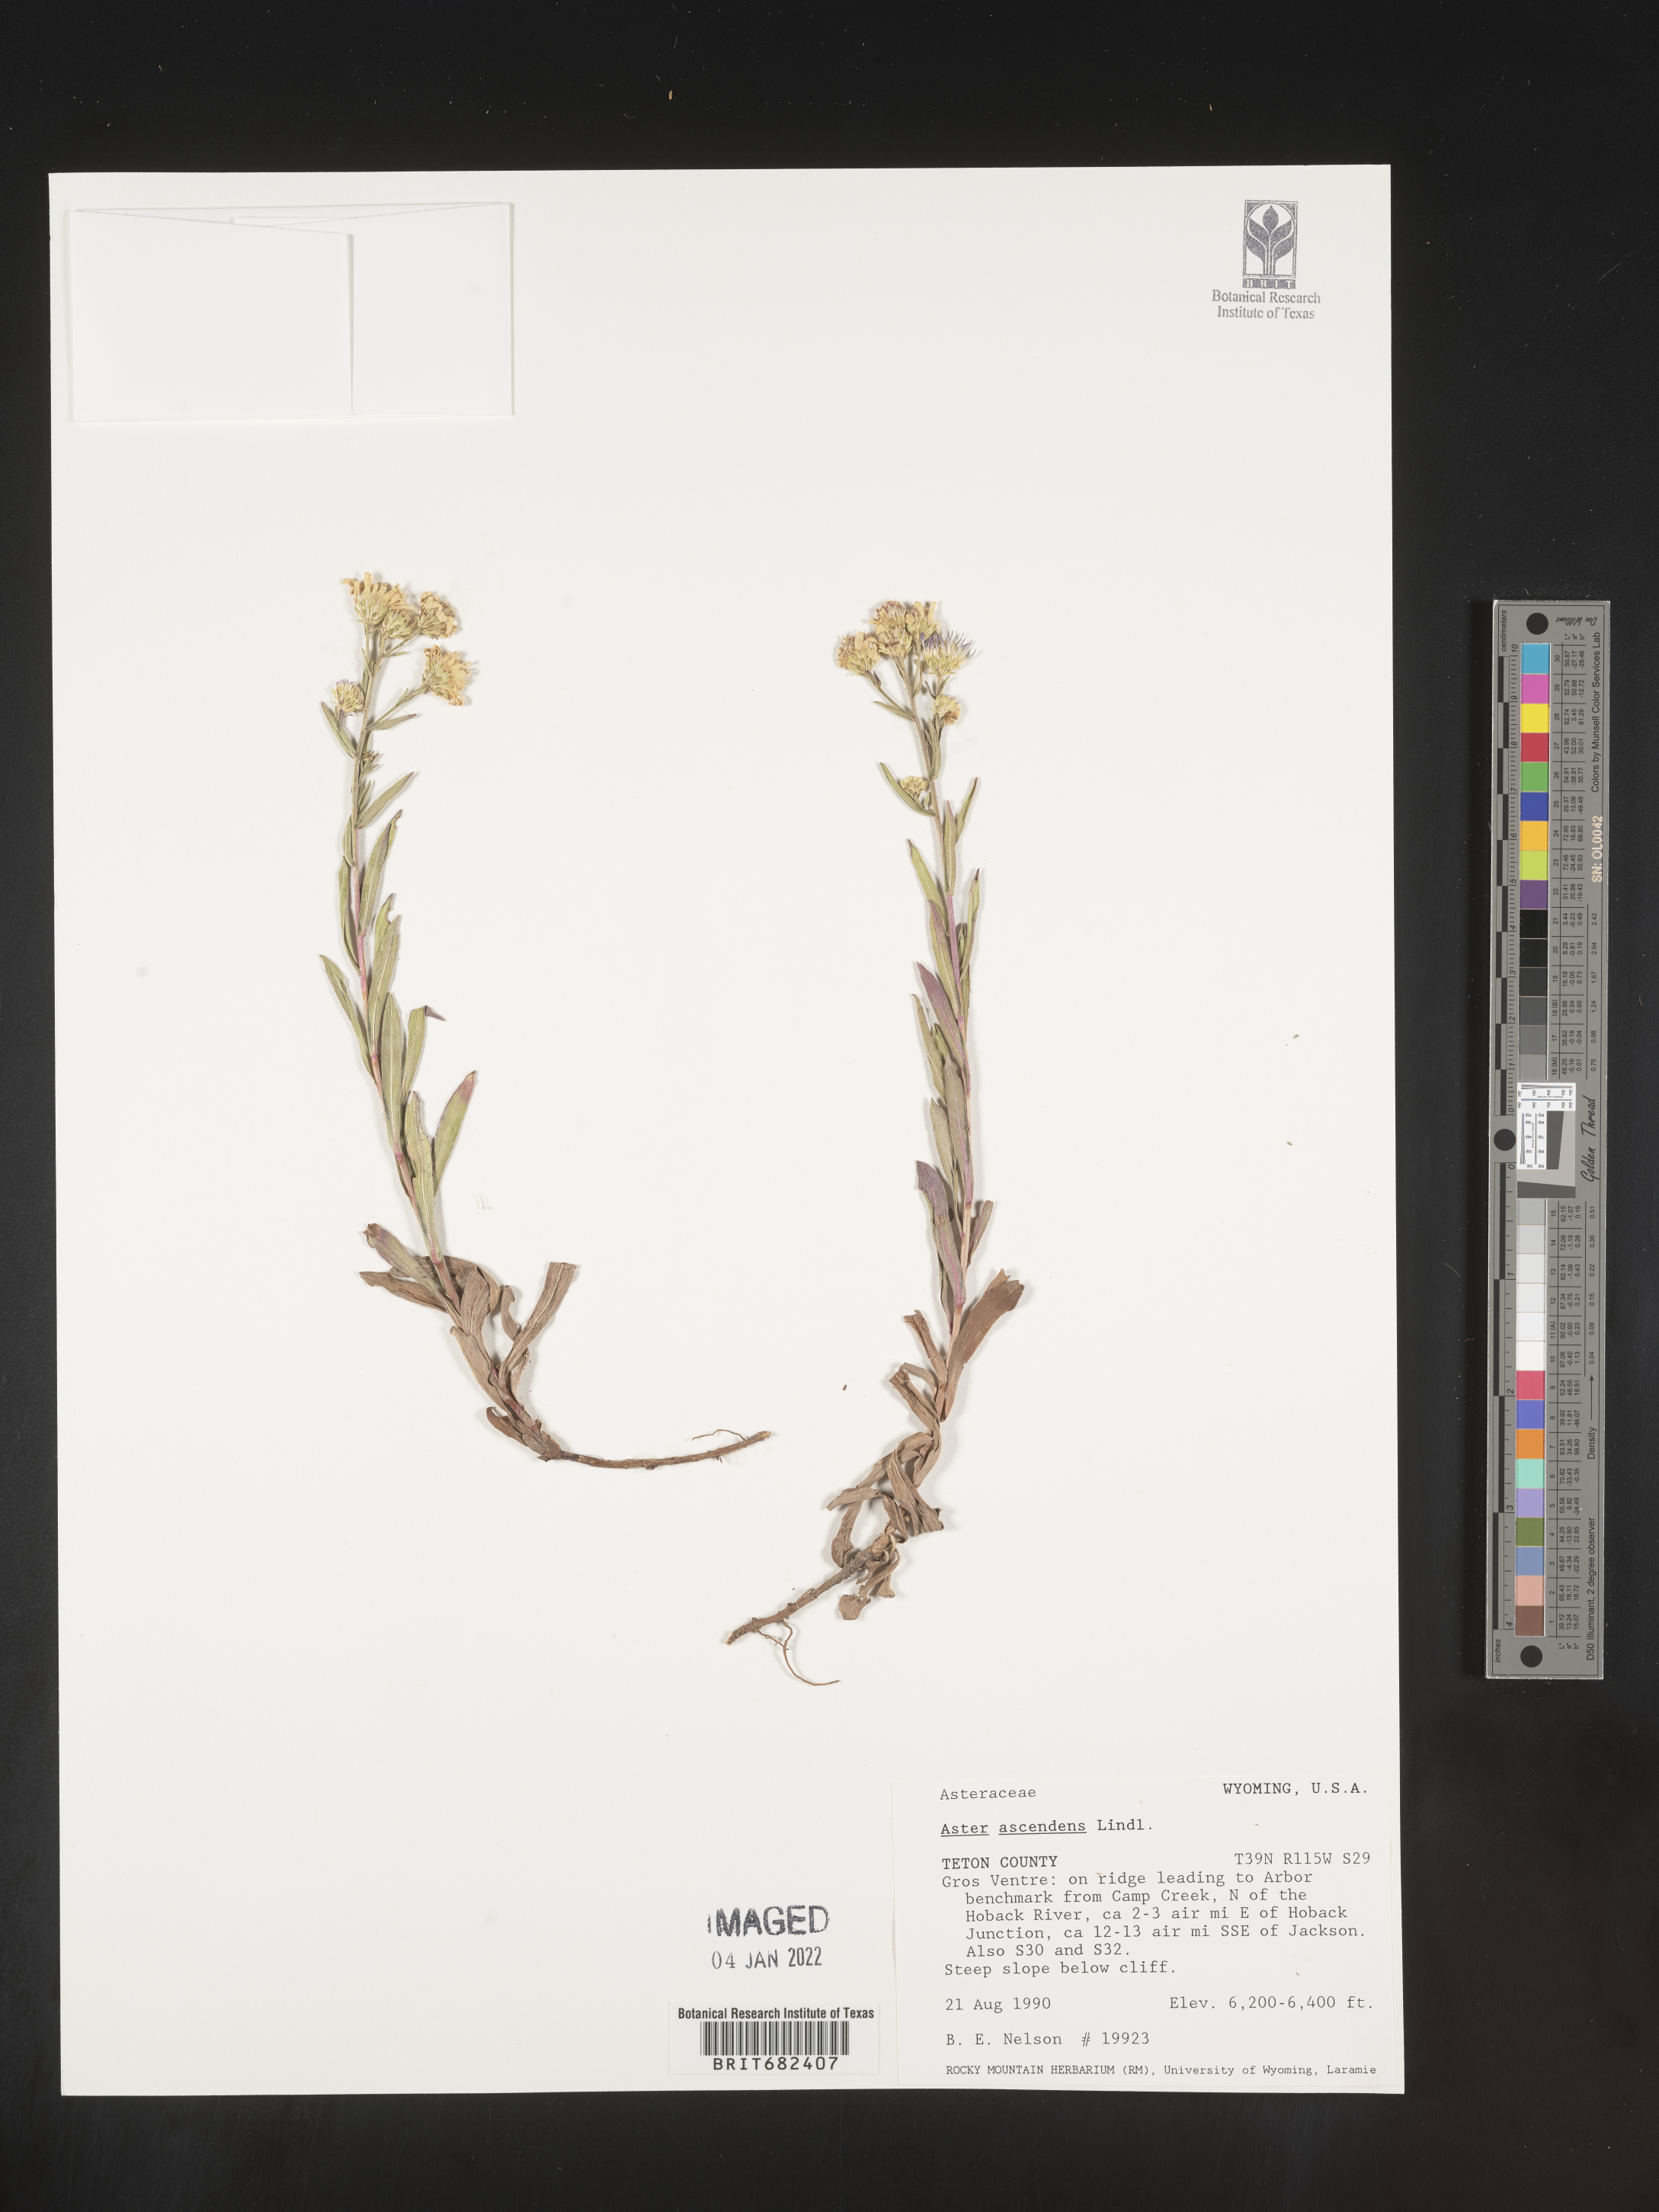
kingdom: Plantae
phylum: Tracheophyta
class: Magnoliopsida
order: Asterales
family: Asteraceae
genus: Aster
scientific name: Aster
